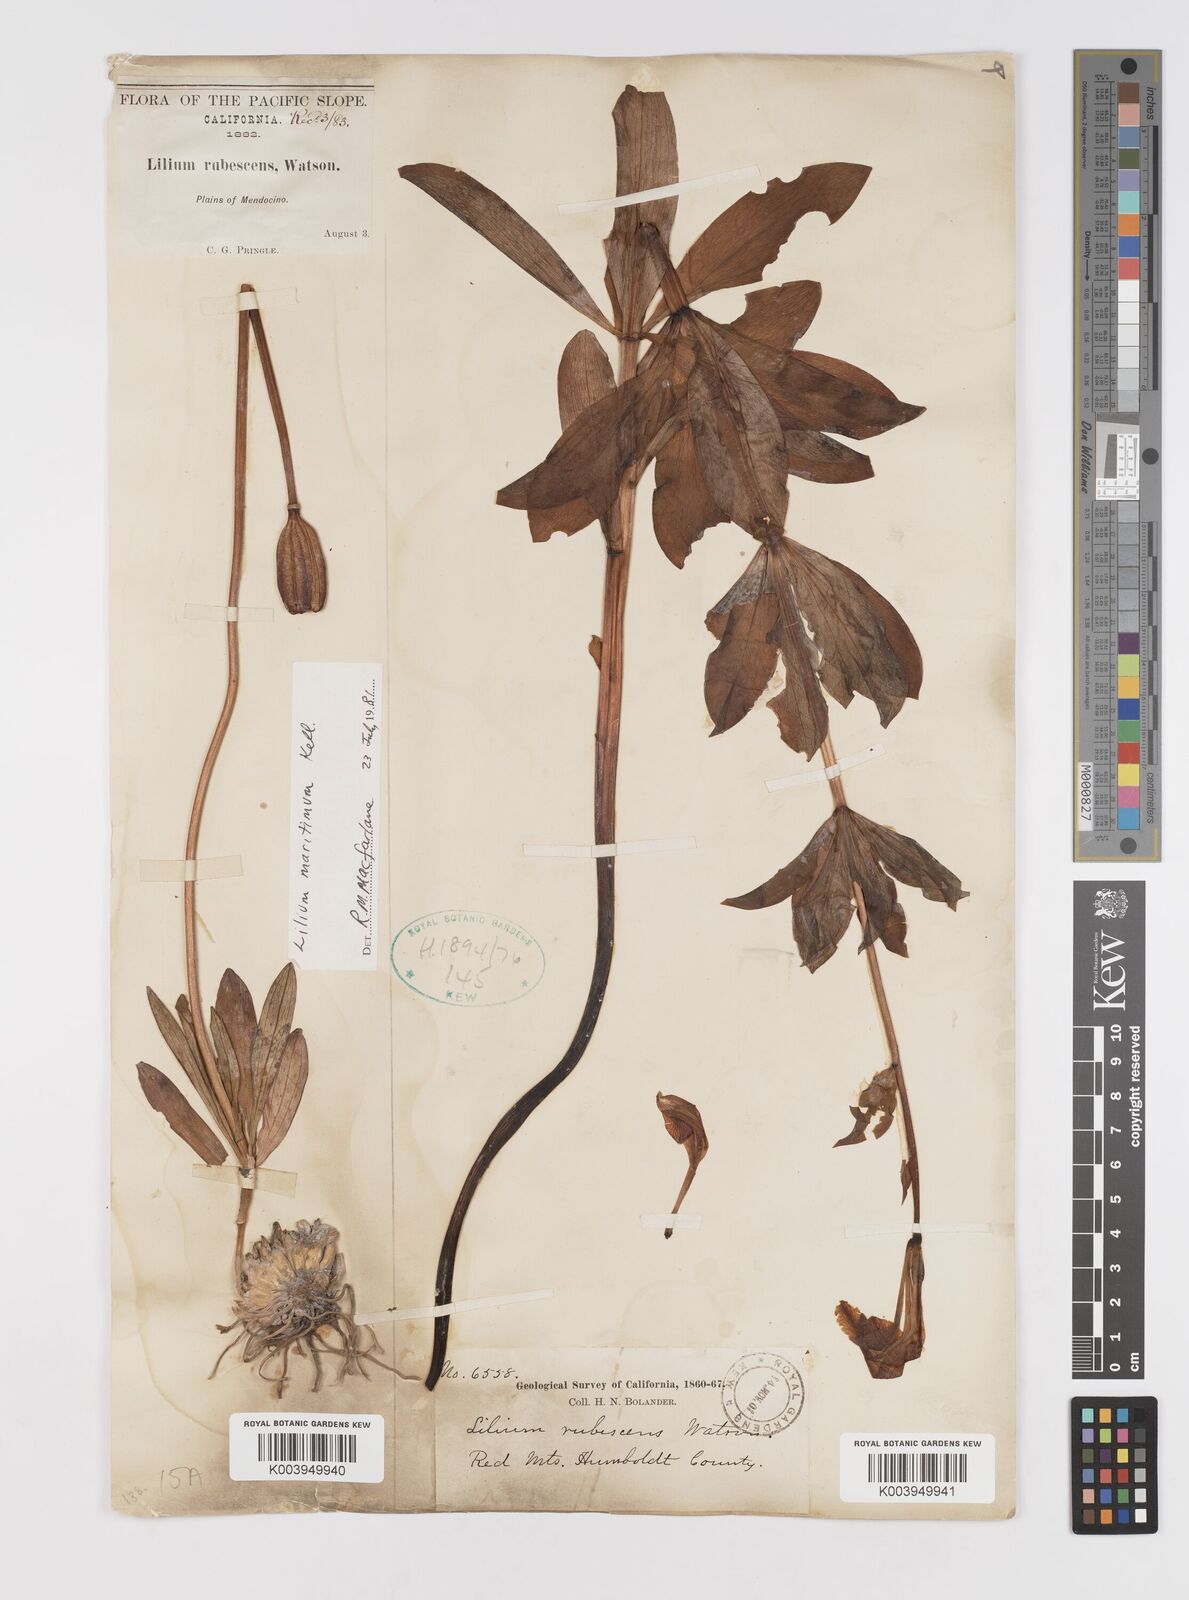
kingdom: Plantae
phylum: Tracheophyta
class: Liliopsida
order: Liliales
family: Liliaceae
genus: Lilium
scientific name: Lilium washingtonianum
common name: Washington lily
